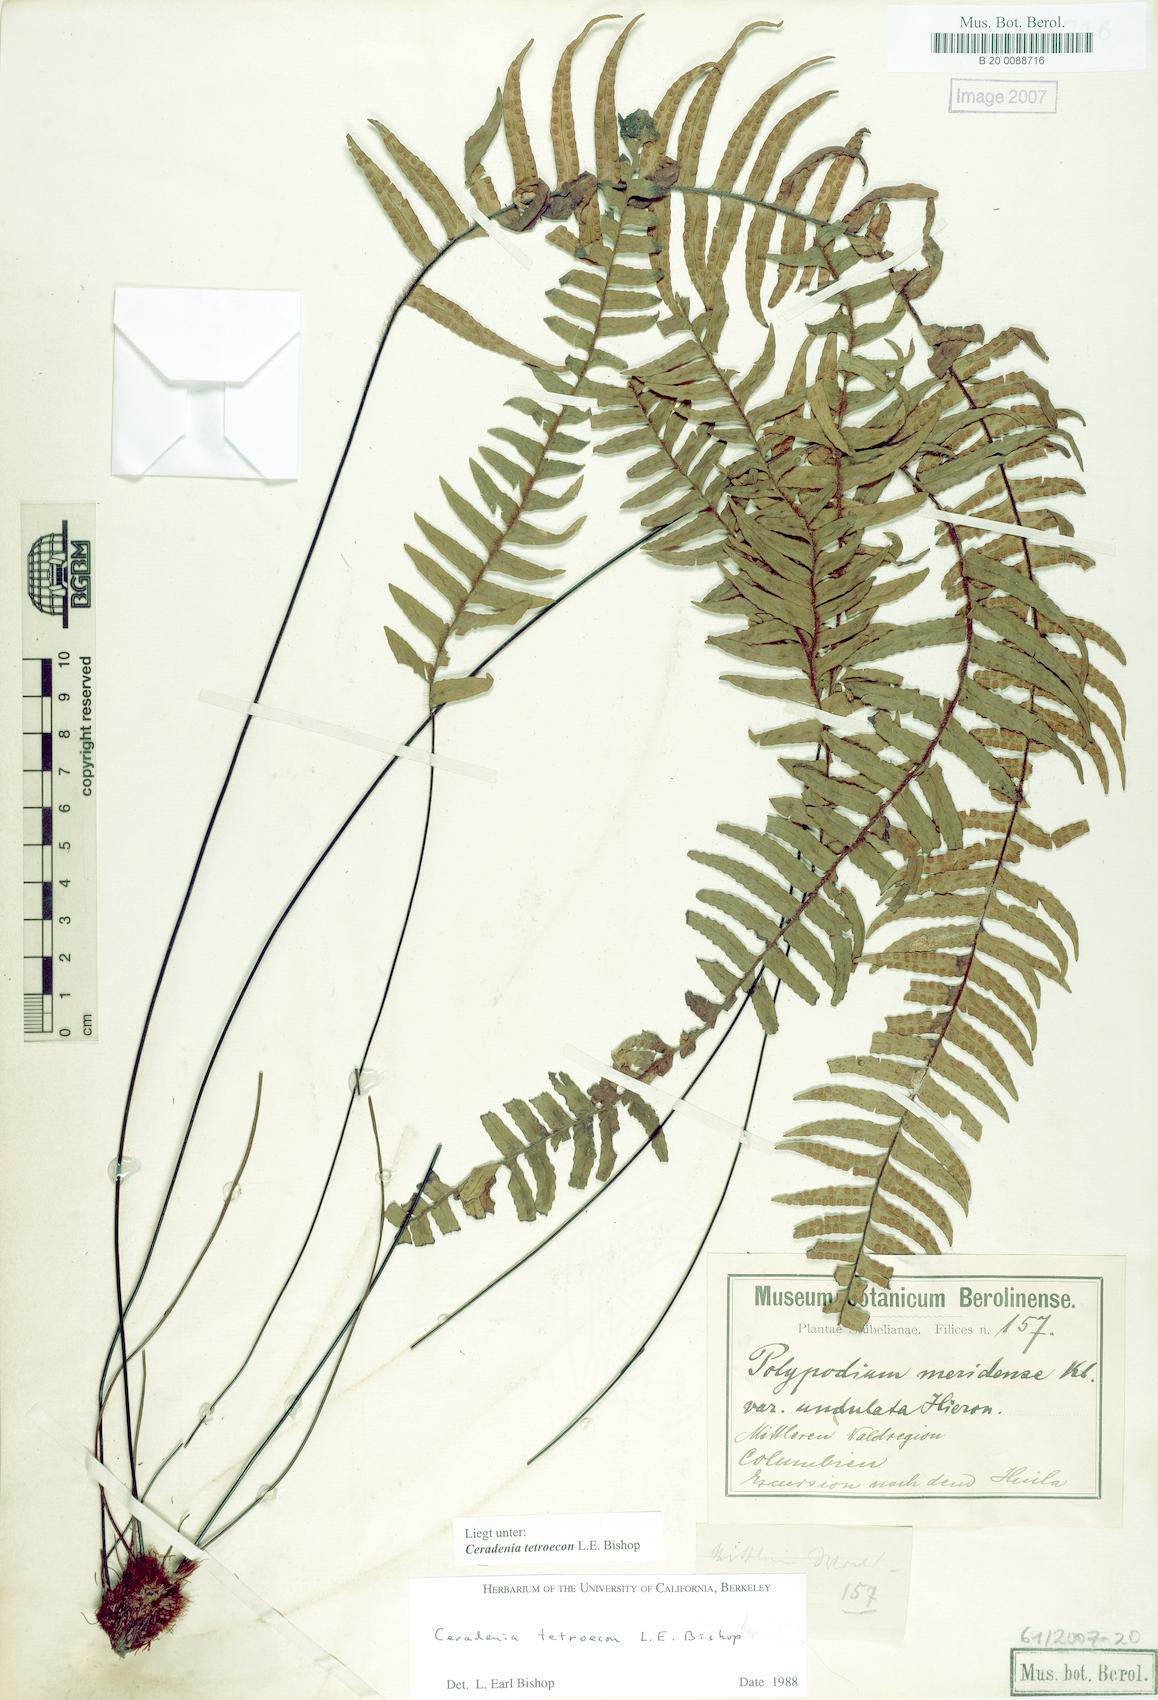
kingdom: Plantae
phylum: Tracheophyta
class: Polypodiopsida
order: Polypodiales
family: Polypodiaceae
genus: Ceradenia
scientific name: Ceradenia
